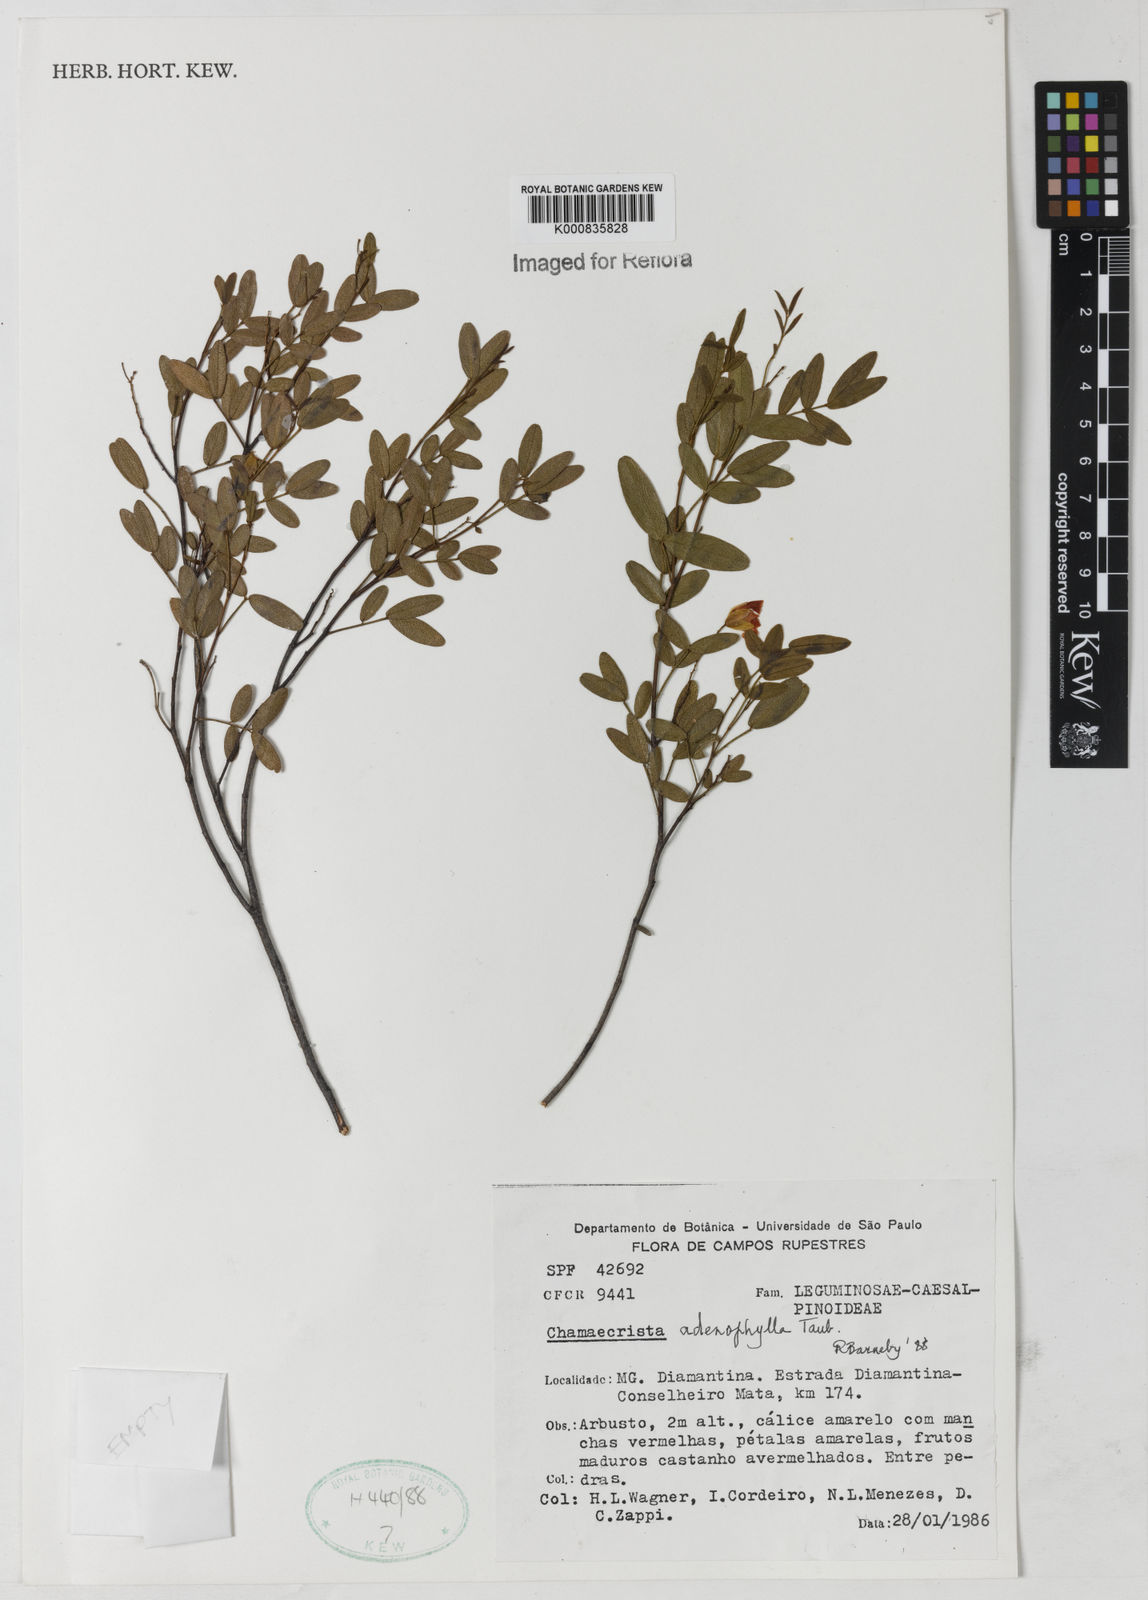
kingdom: Plantae
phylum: Tracheophyta
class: Magnoliopsida
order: Fabales
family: Fabaceae
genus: Chamaecrista
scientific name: Chamaecrista adenophylla
